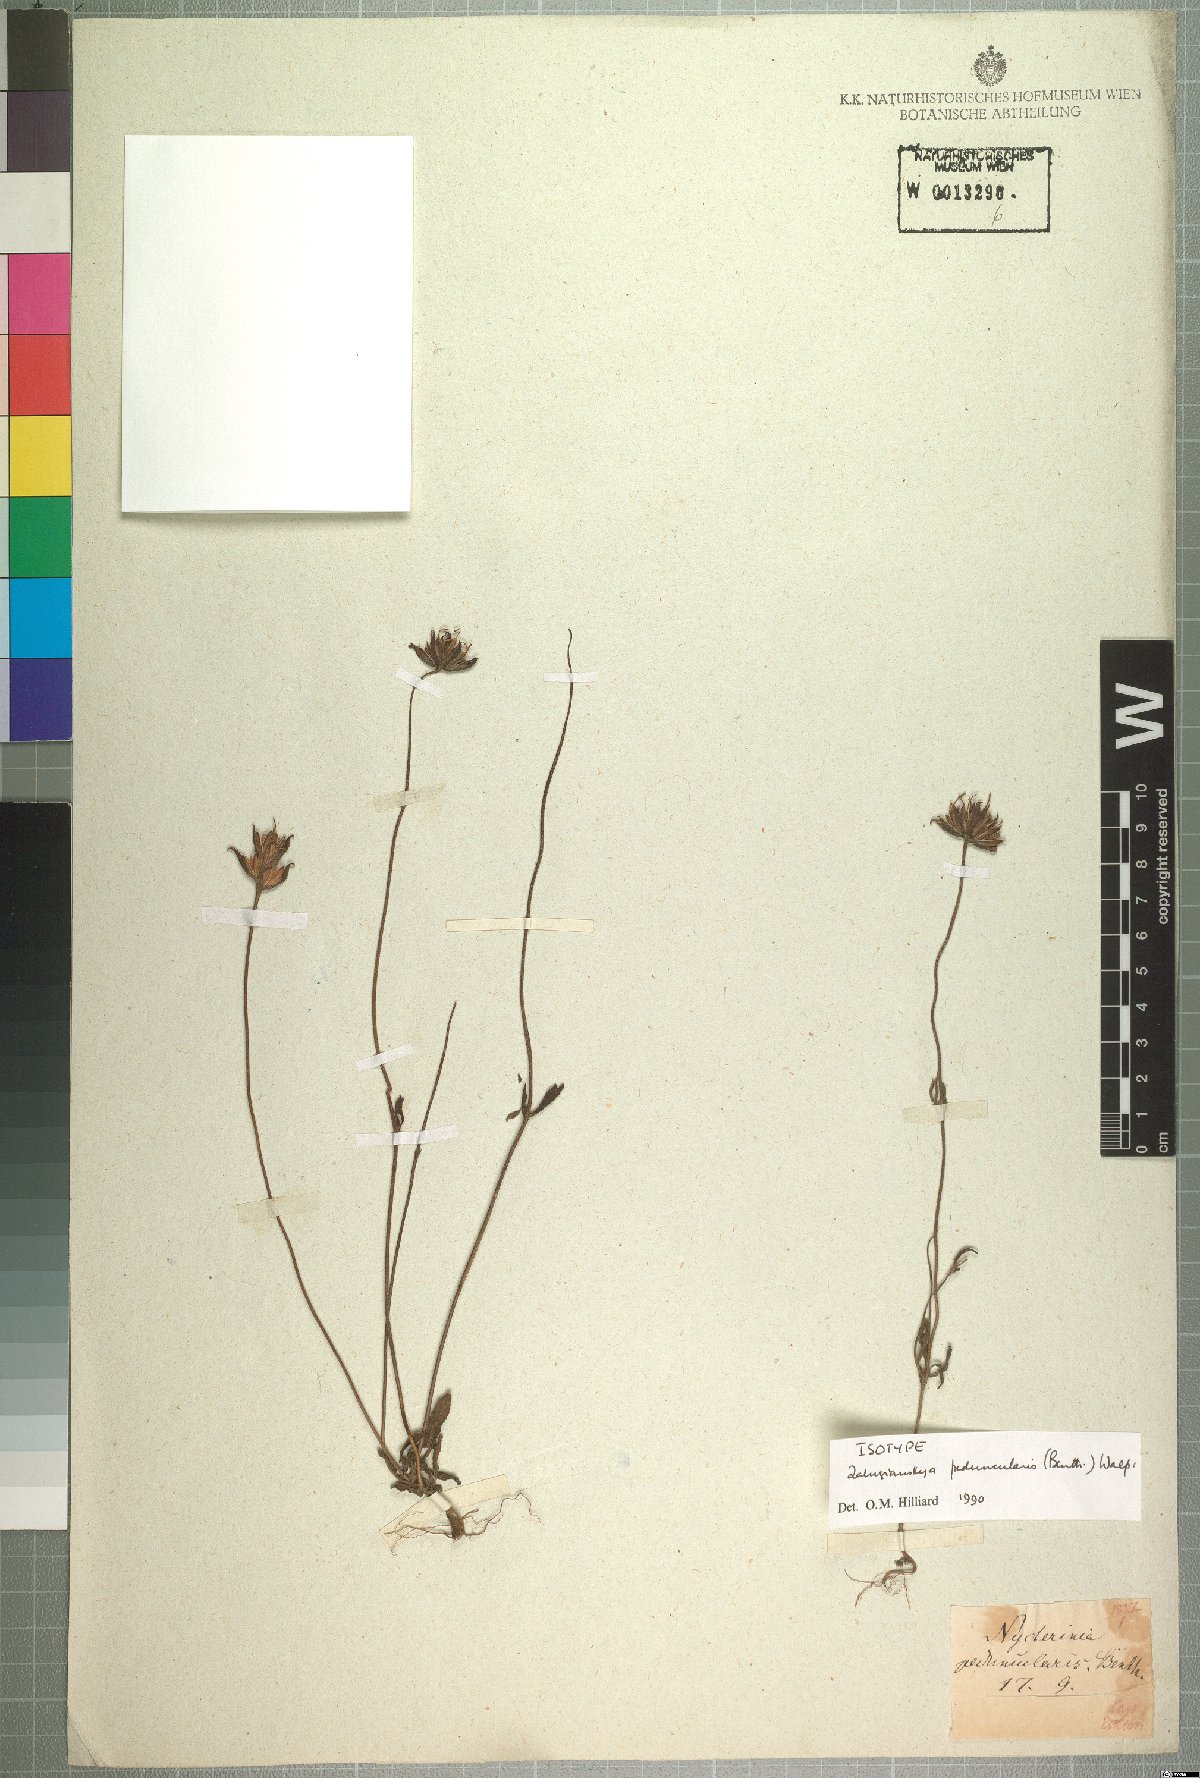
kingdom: Plantae
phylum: Tracheophyta
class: Magnoliopsida
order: Lamiales
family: Scrophulariaceae
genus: Zaluzianskya
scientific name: Zaluzianskya peduncularis
